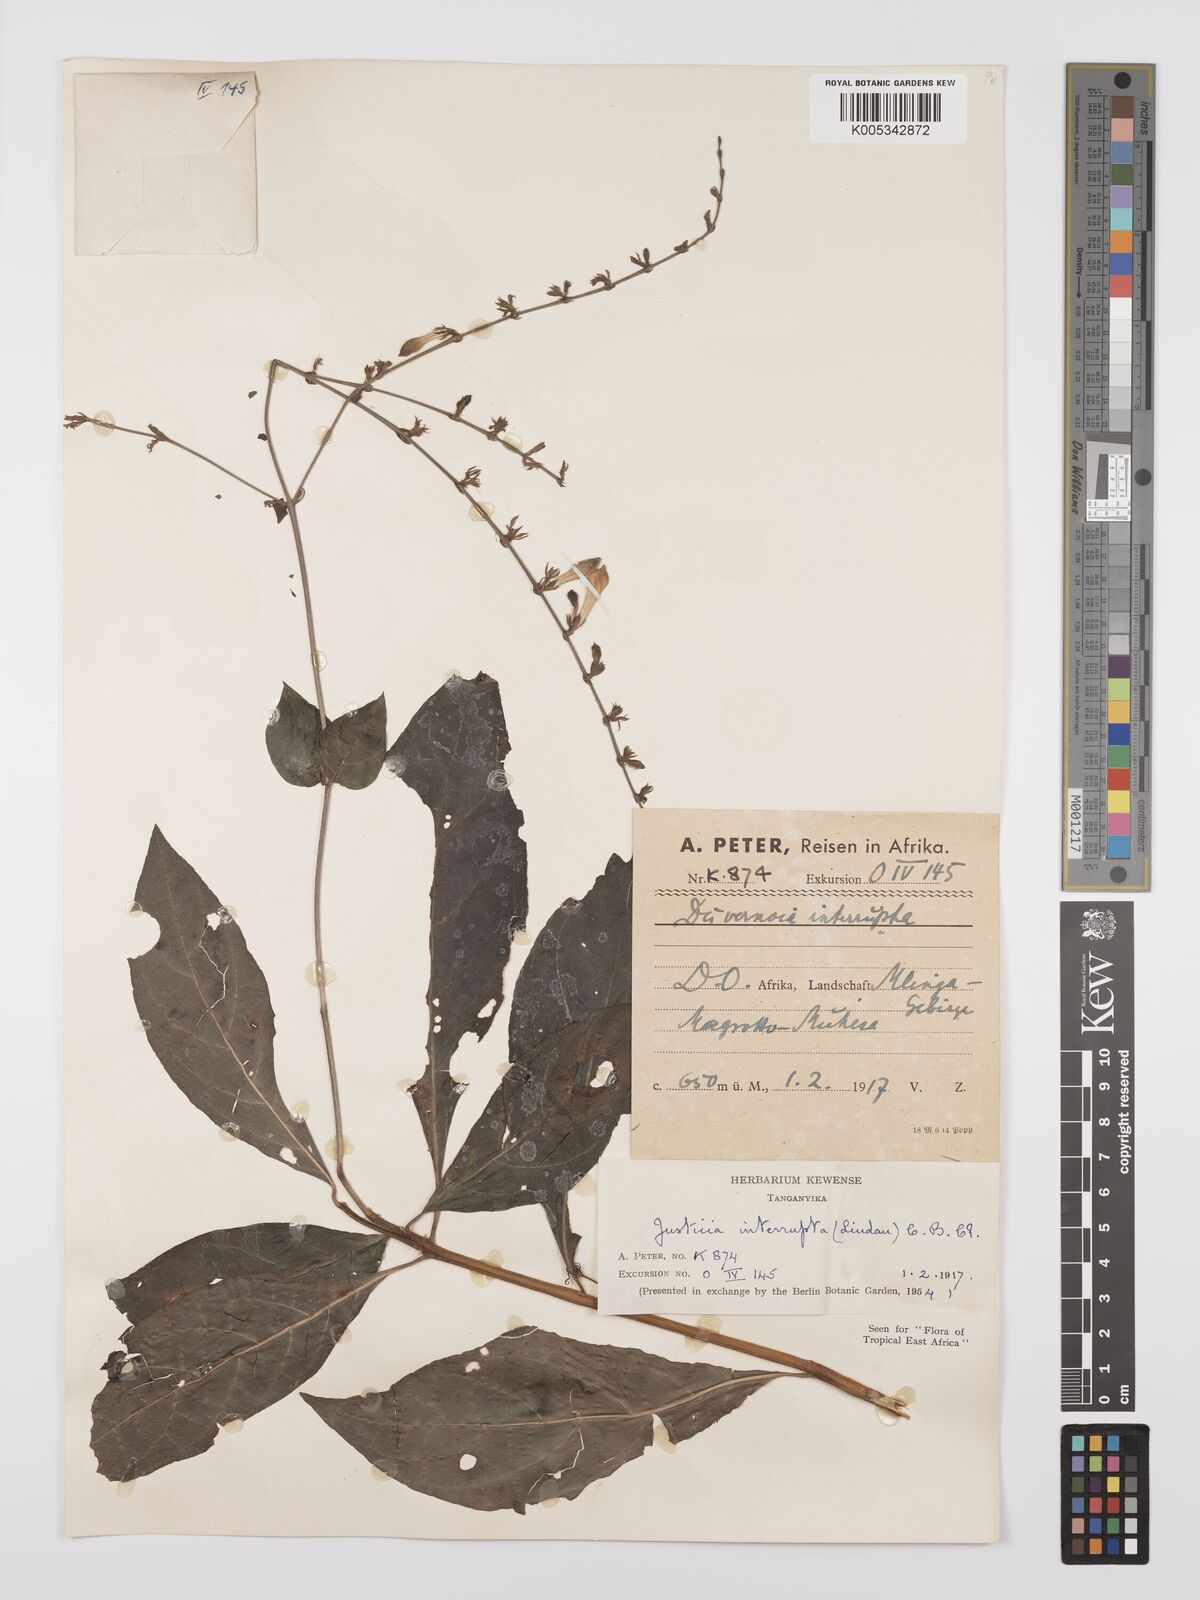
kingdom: Plantae
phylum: Tracheophyta
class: Magnoliopsida
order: Lamiales
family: Acanthaceae
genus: Justicia
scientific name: Justicia plectranthoides
